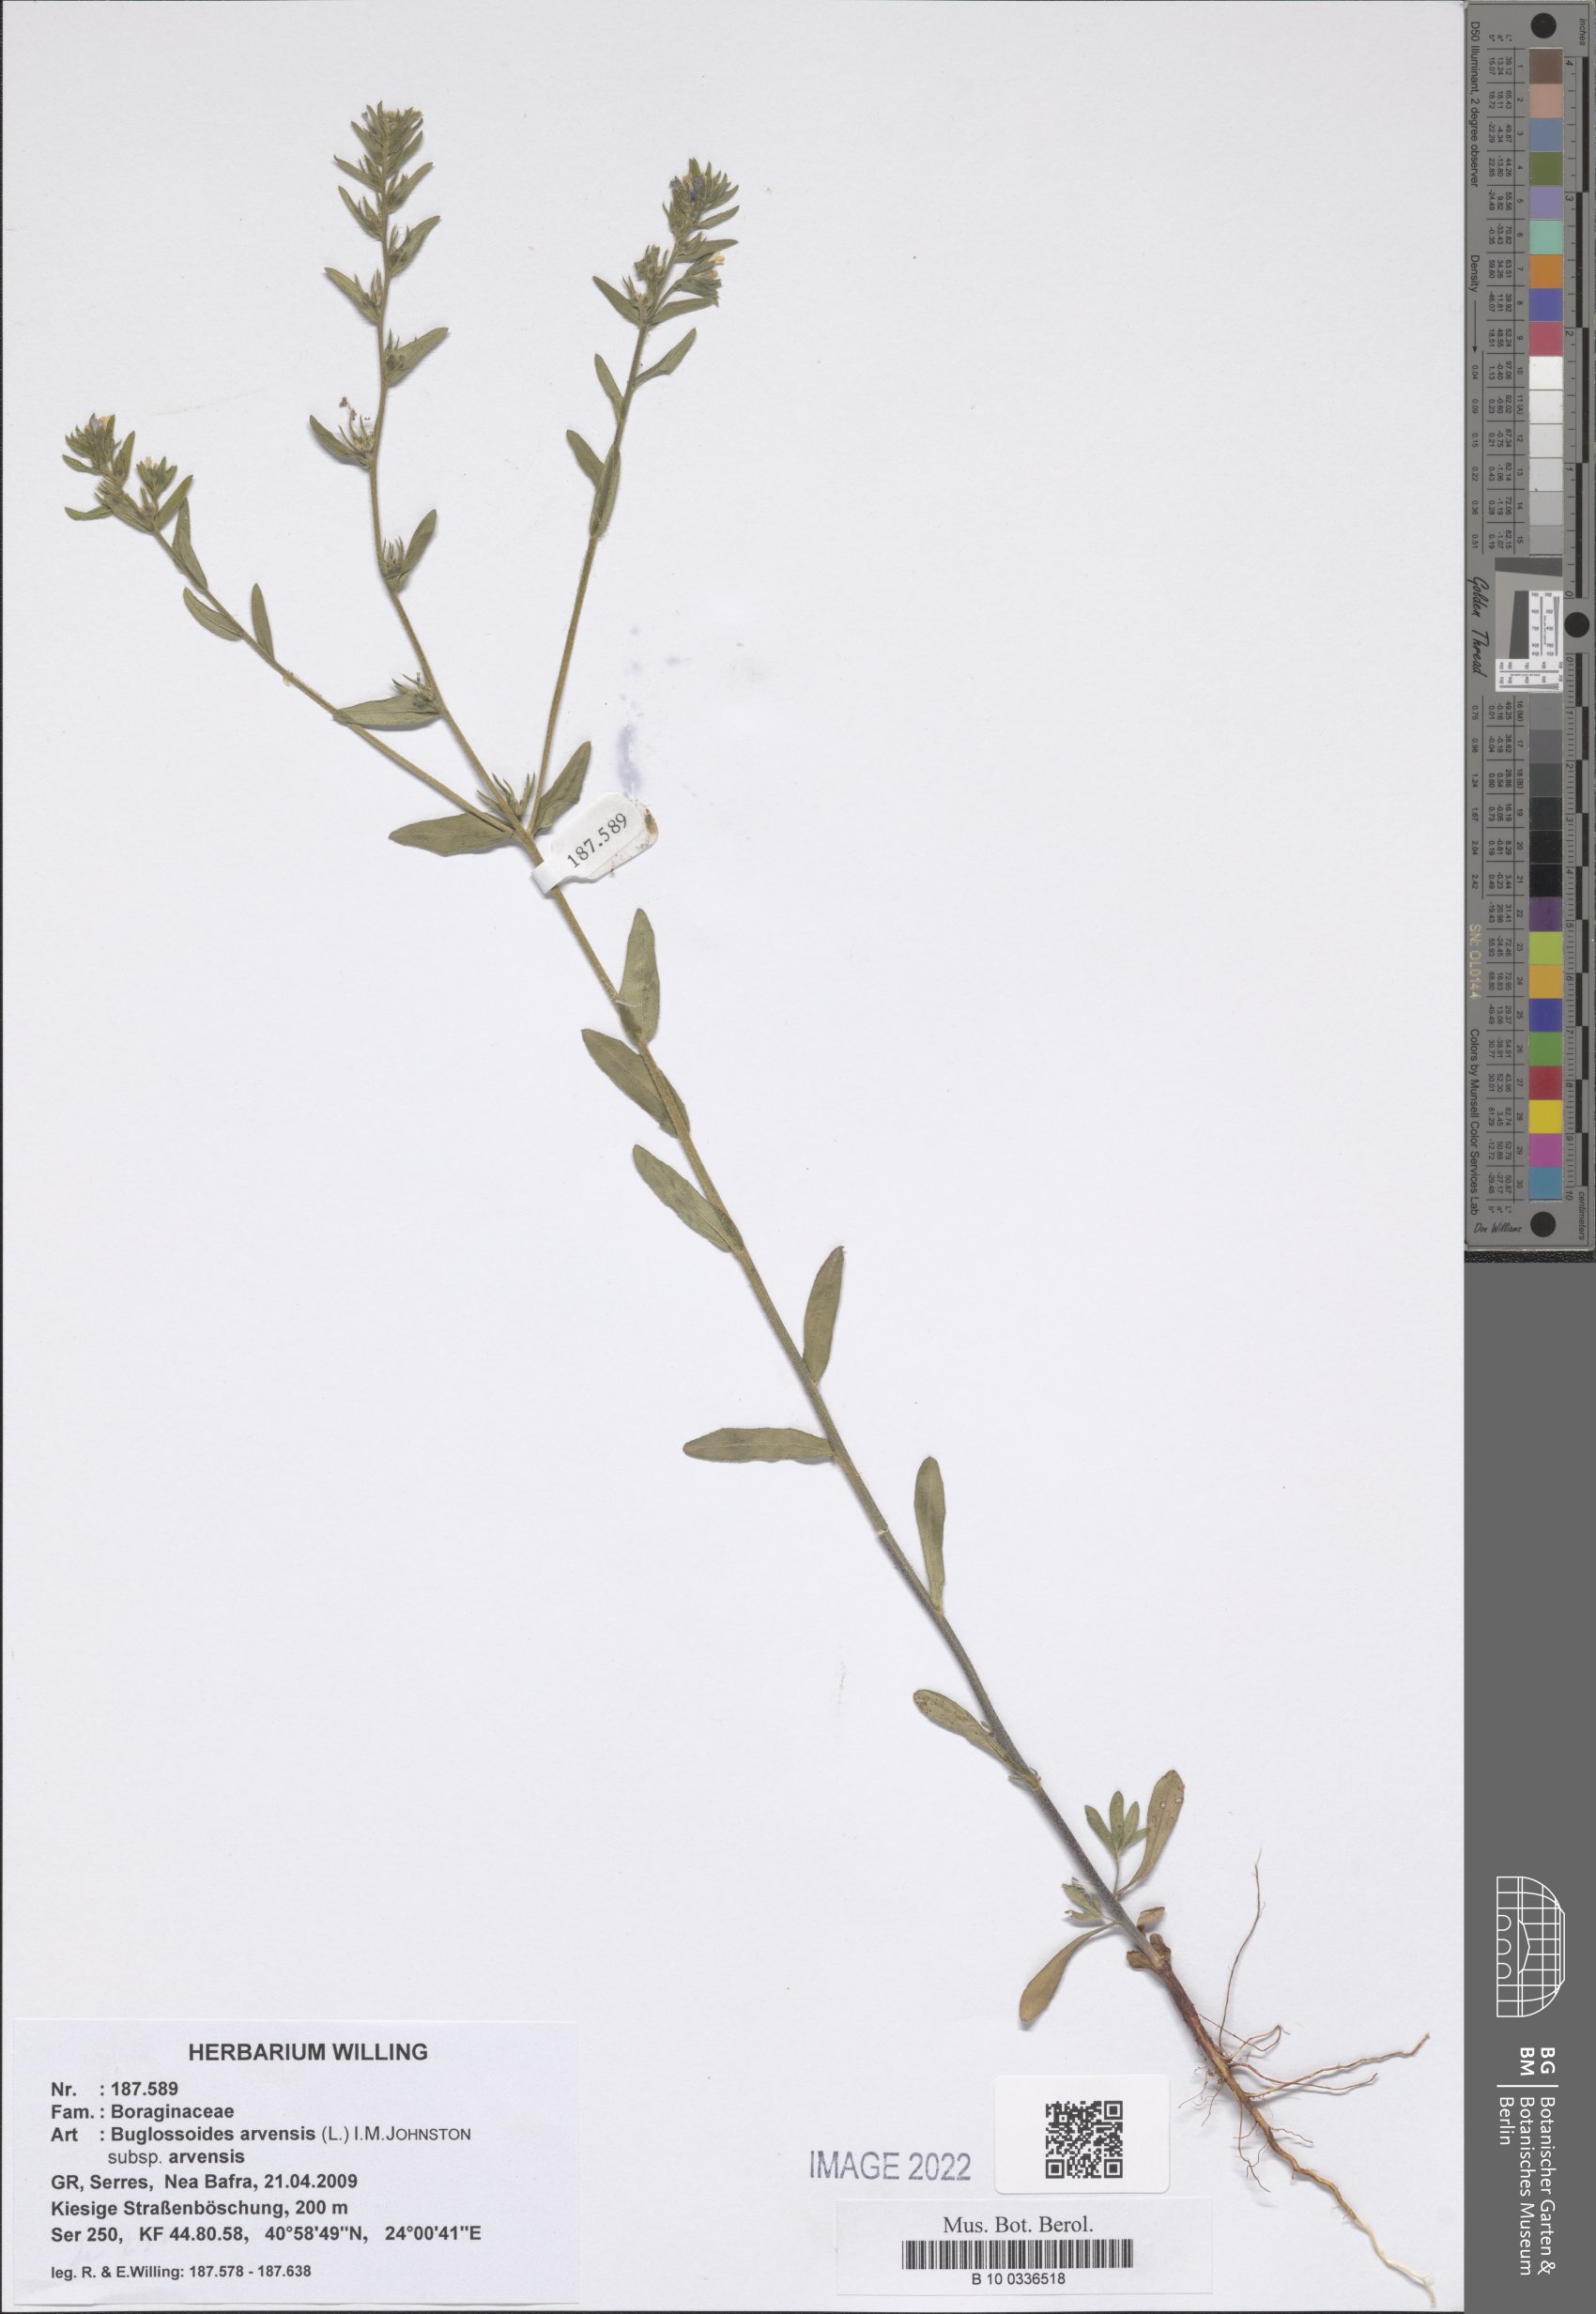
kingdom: Plantae
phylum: Tracheophyta
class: Magnoliopsida
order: Boraginales
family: Boraginaceae
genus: Buglossoides
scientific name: Buglossoides arvensis
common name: Corn gromwell
